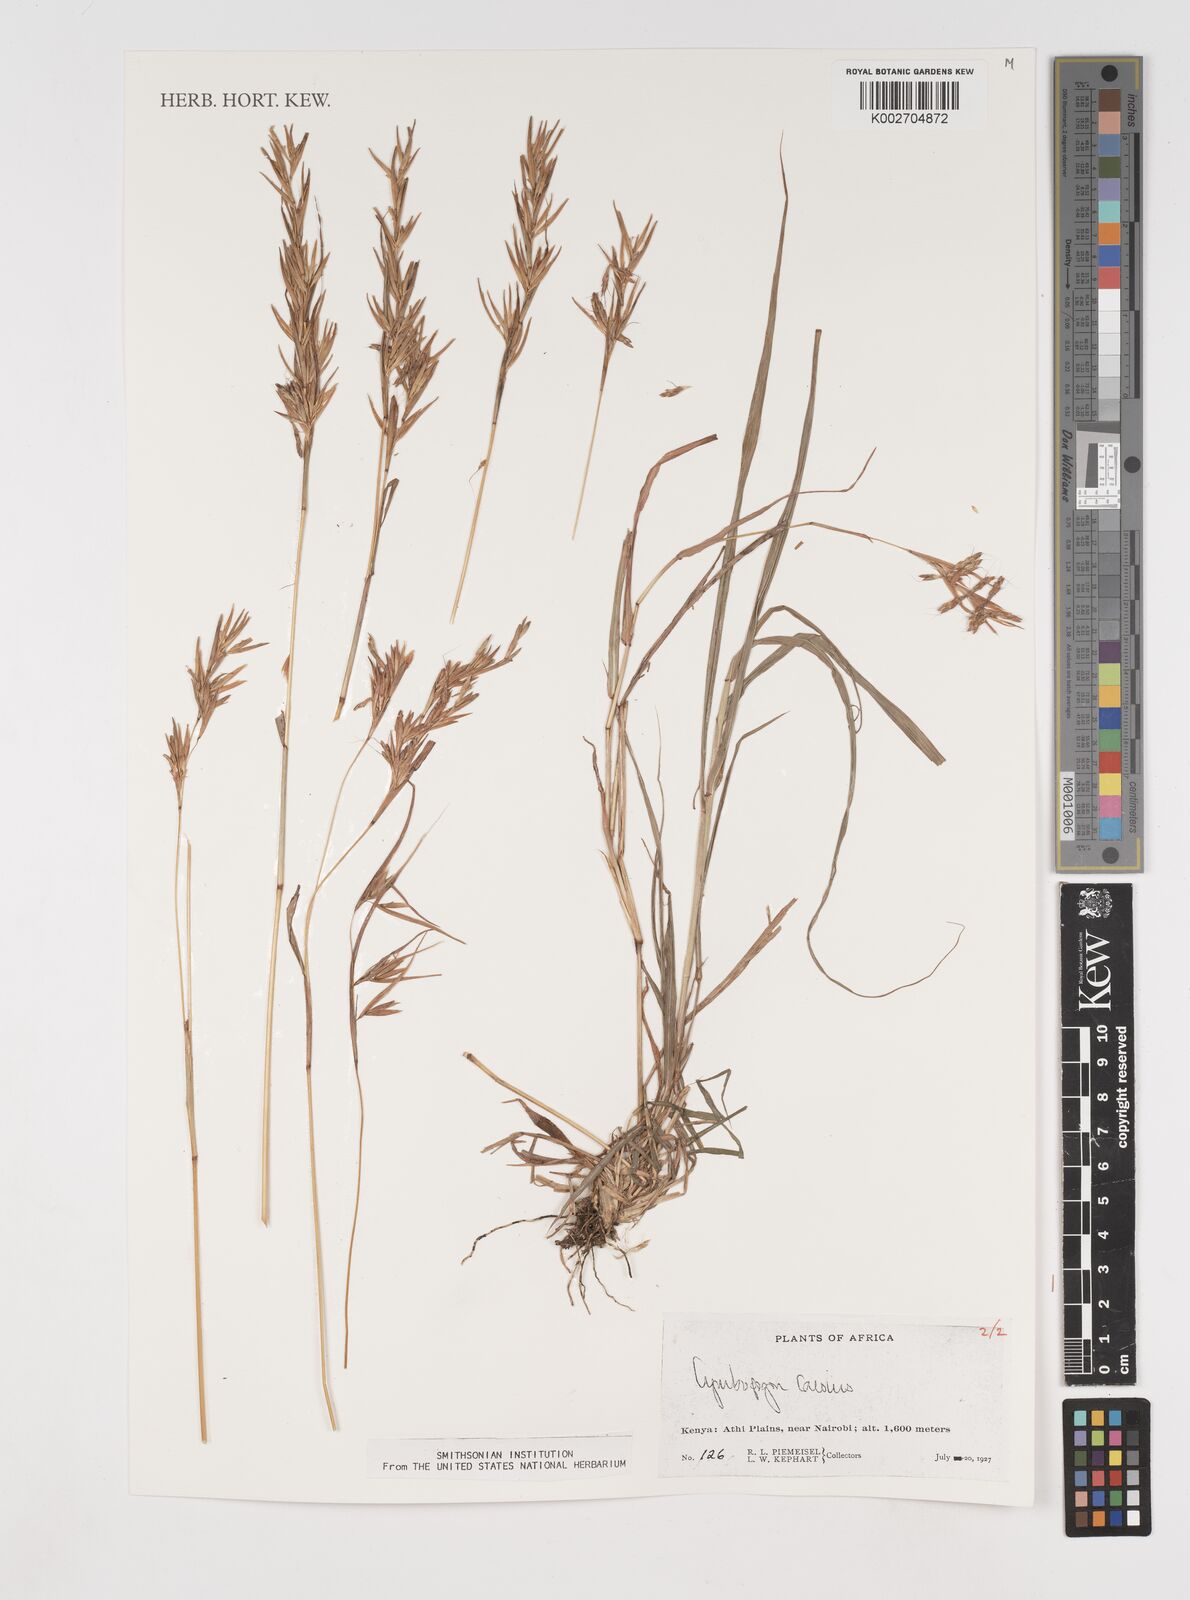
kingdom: Plantae
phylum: Tracheophyta
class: Liliopsida
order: Poales
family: Poaceae
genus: Cymbopogon
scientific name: Cymbopogon caesius
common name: Kachi grass
